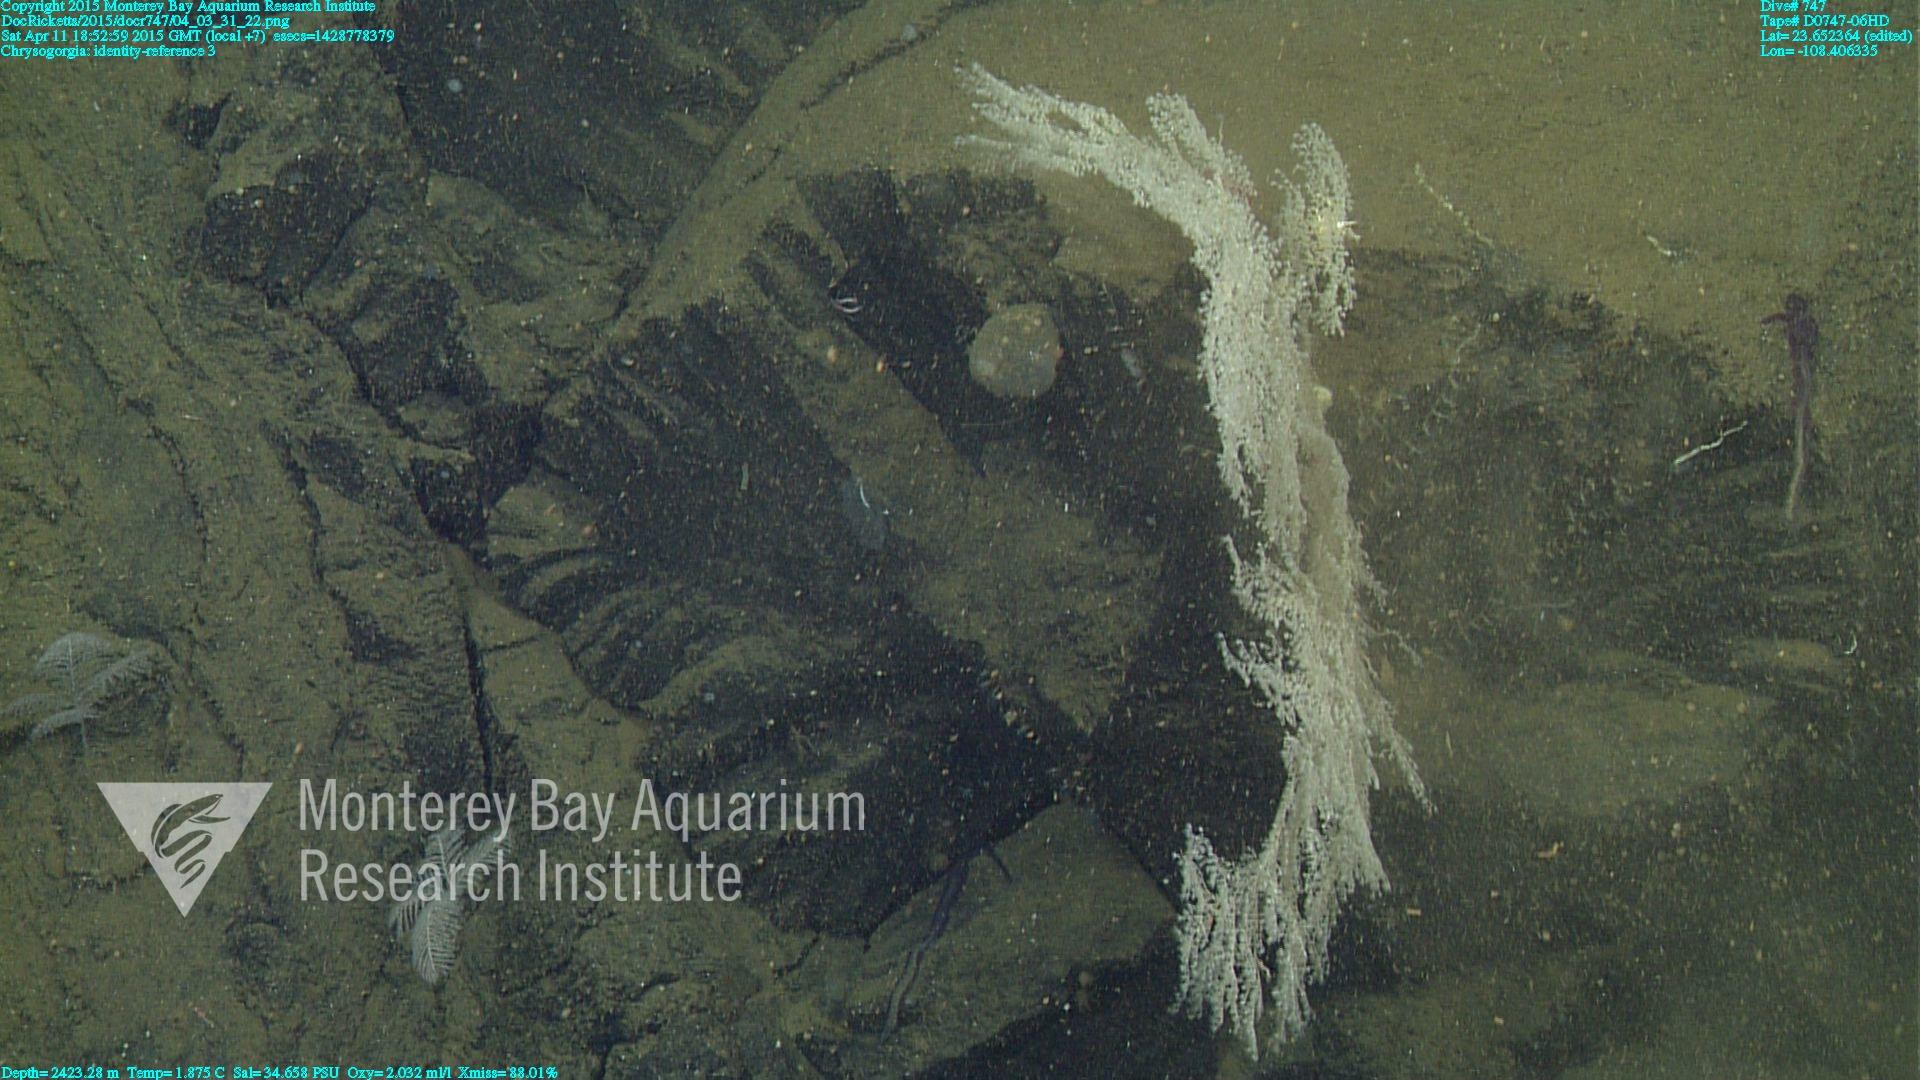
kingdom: Animalia
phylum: Cnidaria
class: Anthozoa
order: Scleralcyonacea
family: Chrysogorgiidae
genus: Chrysogorgia
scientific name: Chrysogorgia
